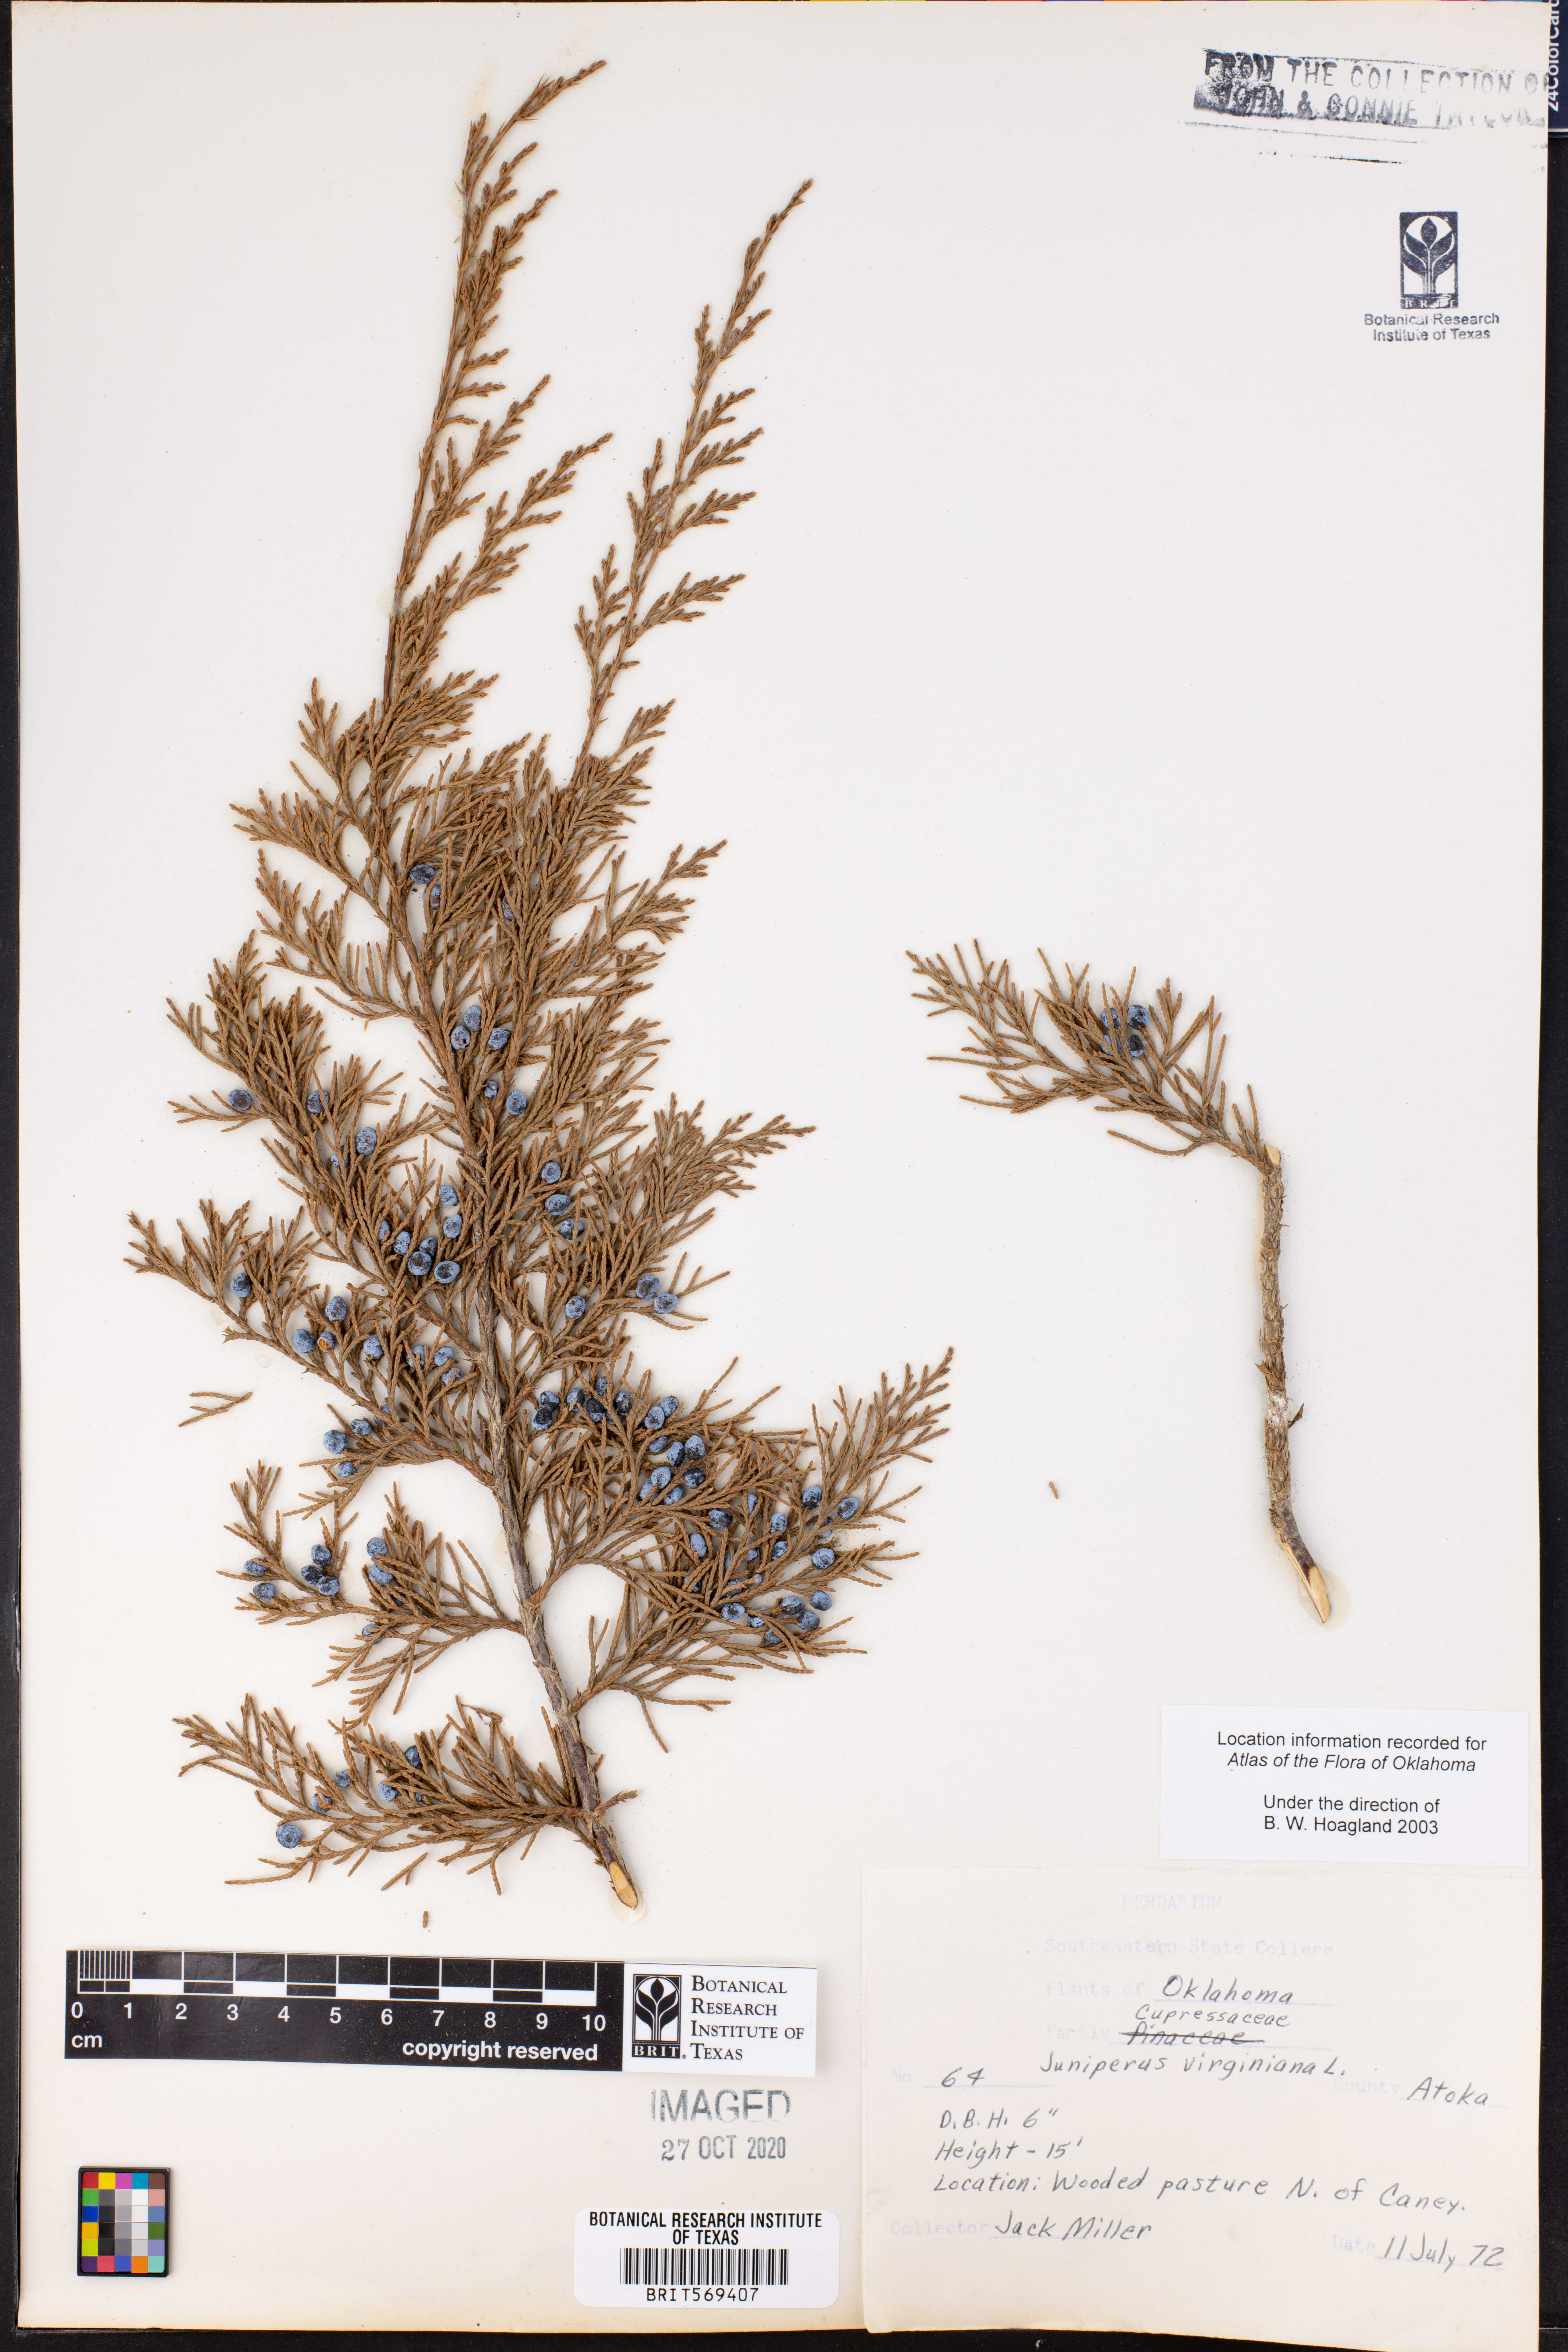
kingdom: Plantae
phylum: Tracheophyta
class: Pinopsida
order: Pinales
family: Cupressaceae
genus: Juniperus
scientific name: Juniperus virginiana
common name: Red juniper
